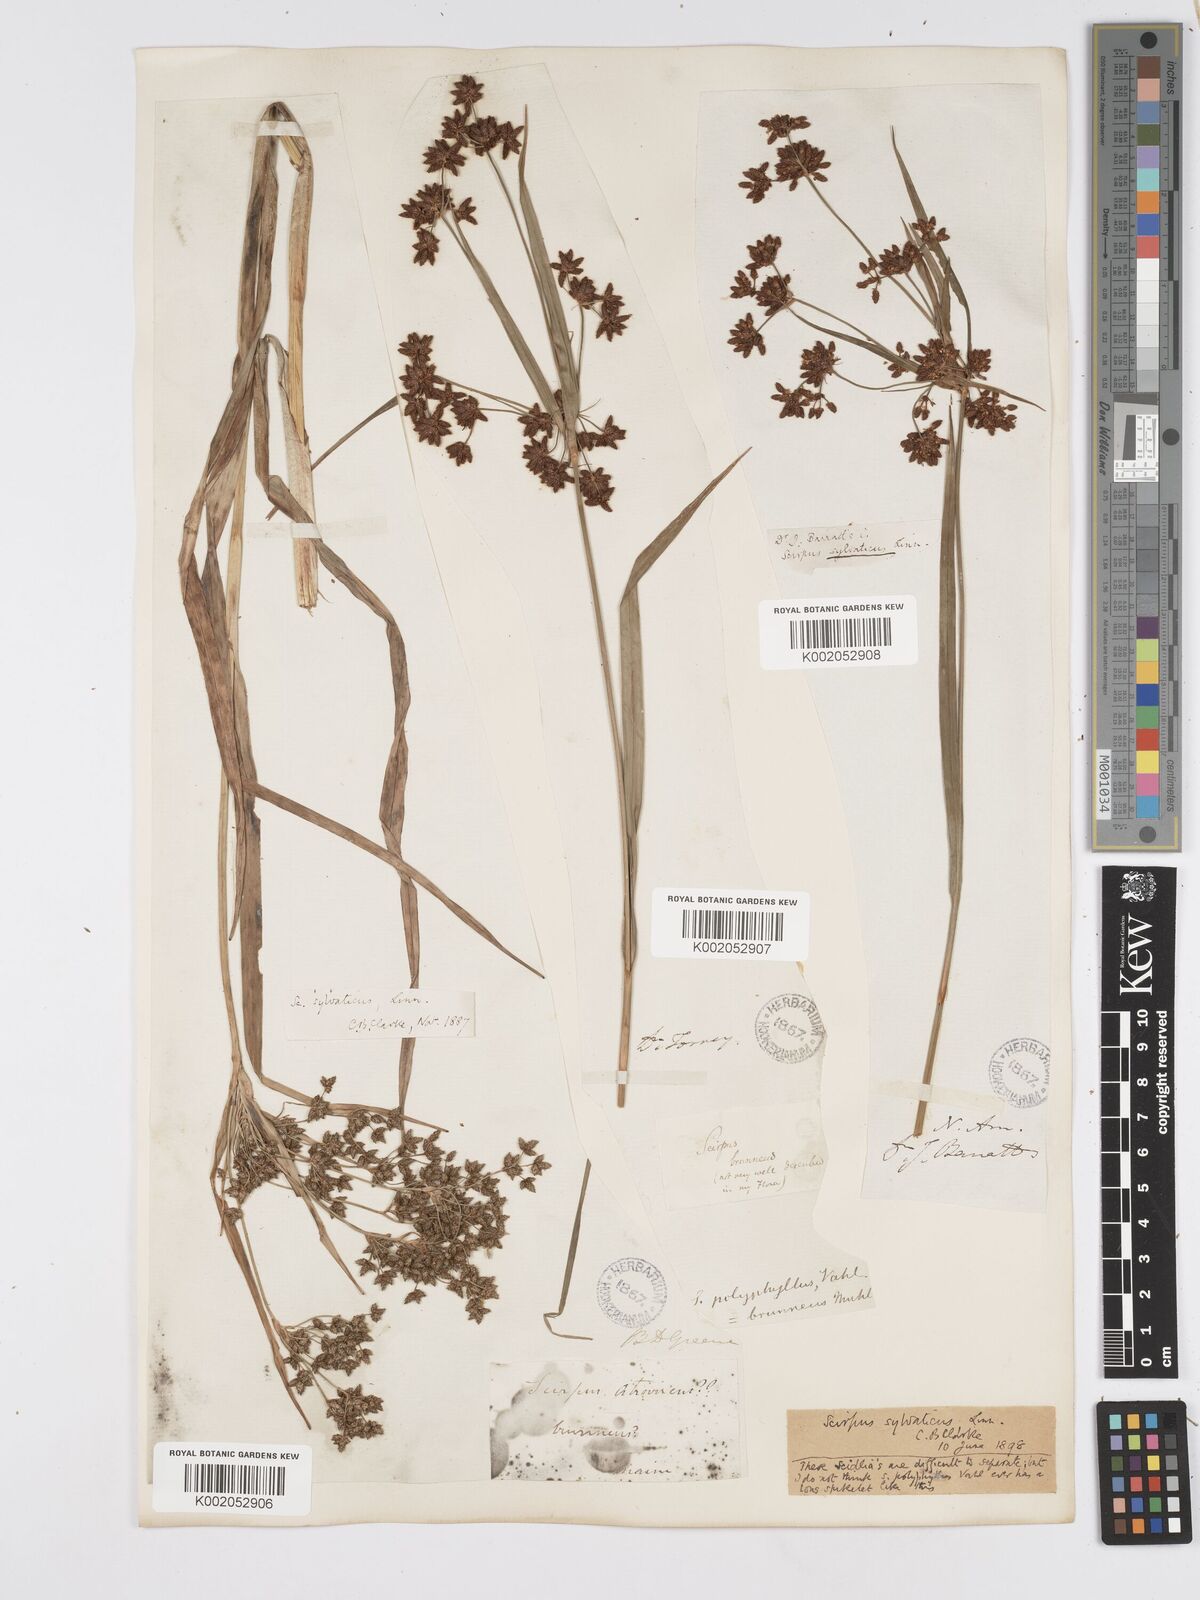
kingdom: Plantae
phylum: Tracheophyta
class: Liliopsida
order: Poales
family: Cyperaceae
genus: Scirpus
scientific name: Scirpus sylvaticus
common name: Wood club-rush
